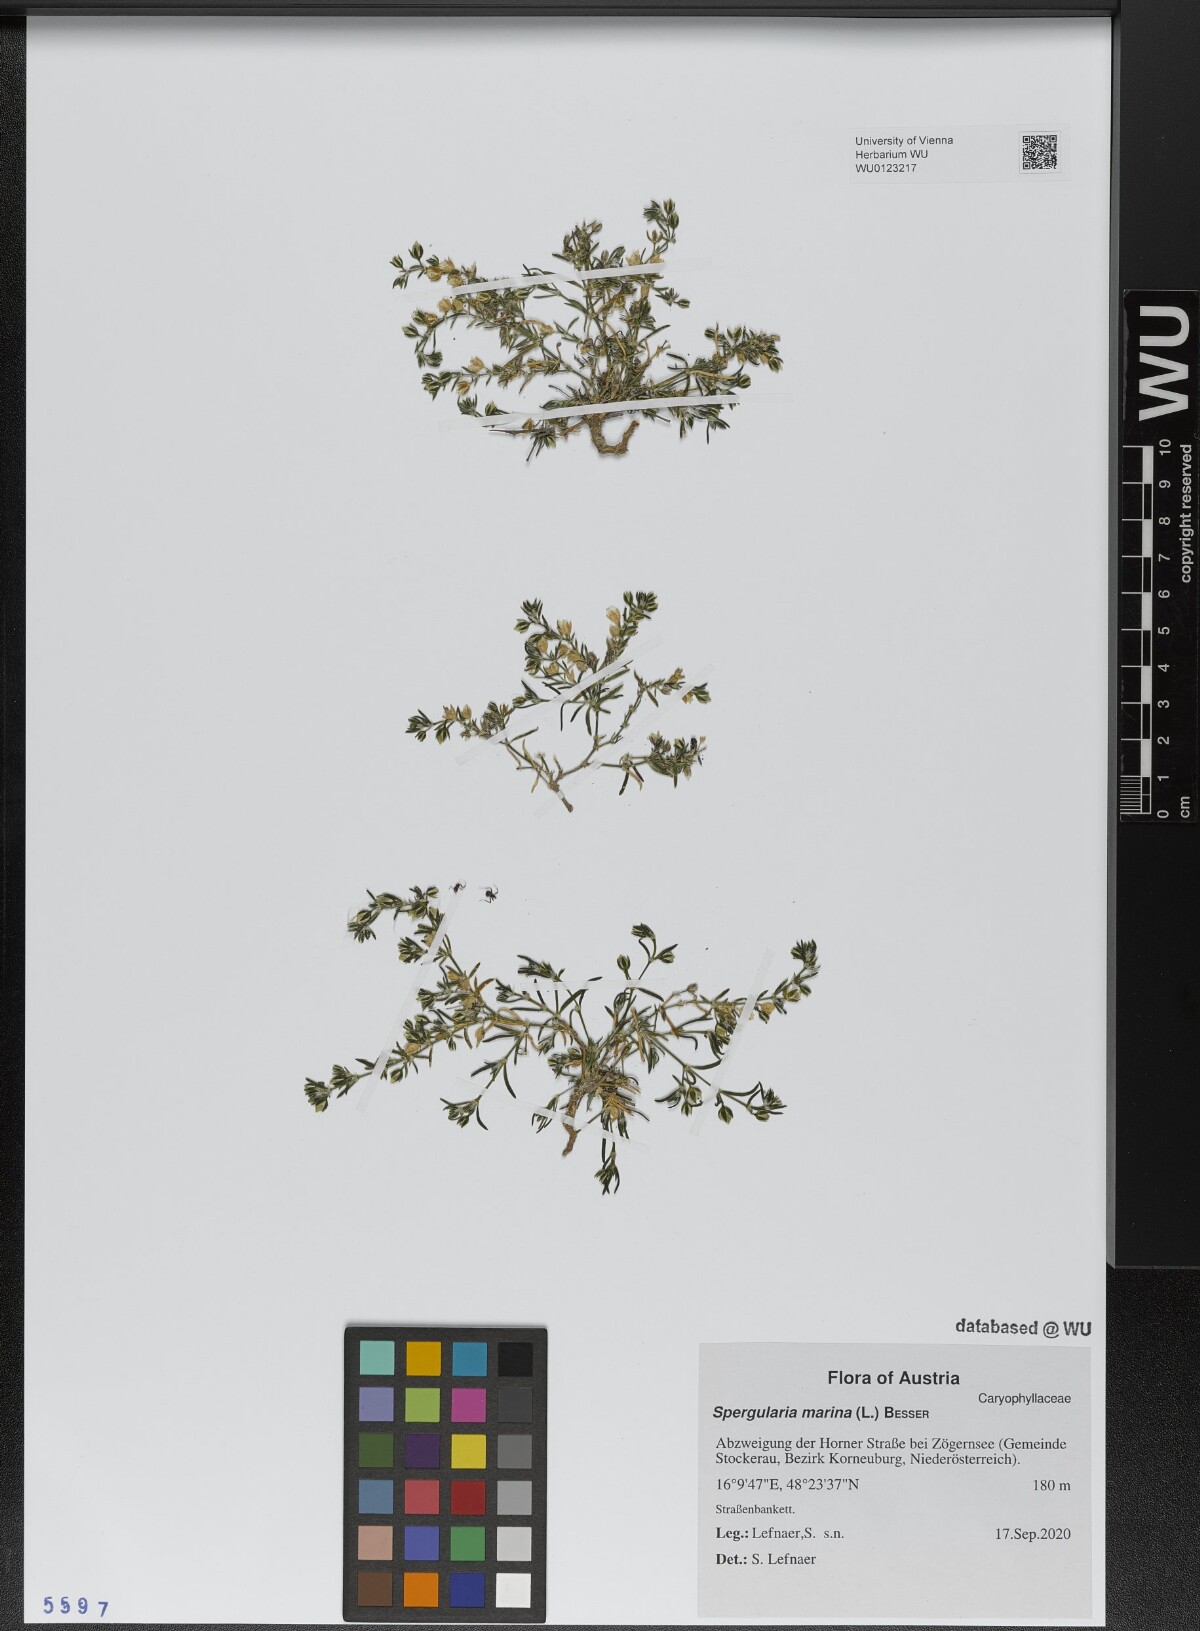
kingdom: Plantae
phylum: Tracheophyta
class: Magnoliopsida
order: Caryophyllales
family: Caryophyllaceae
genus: Spergularia
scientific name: Spergularia marina
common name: Lesser sea-spurrey
